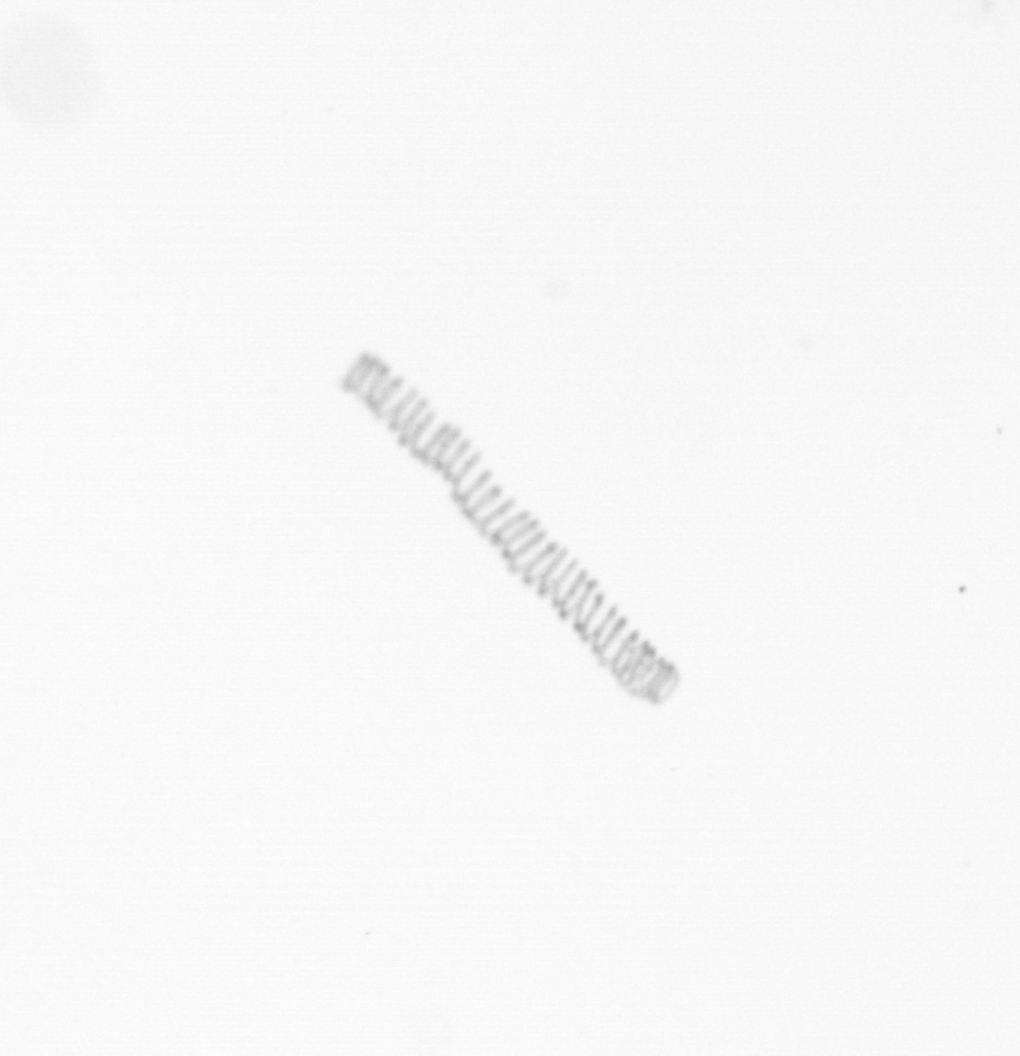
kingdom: Chromista
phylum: Ochrophyta
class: Bacillariophyceae
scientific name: Bacillariophyceae
